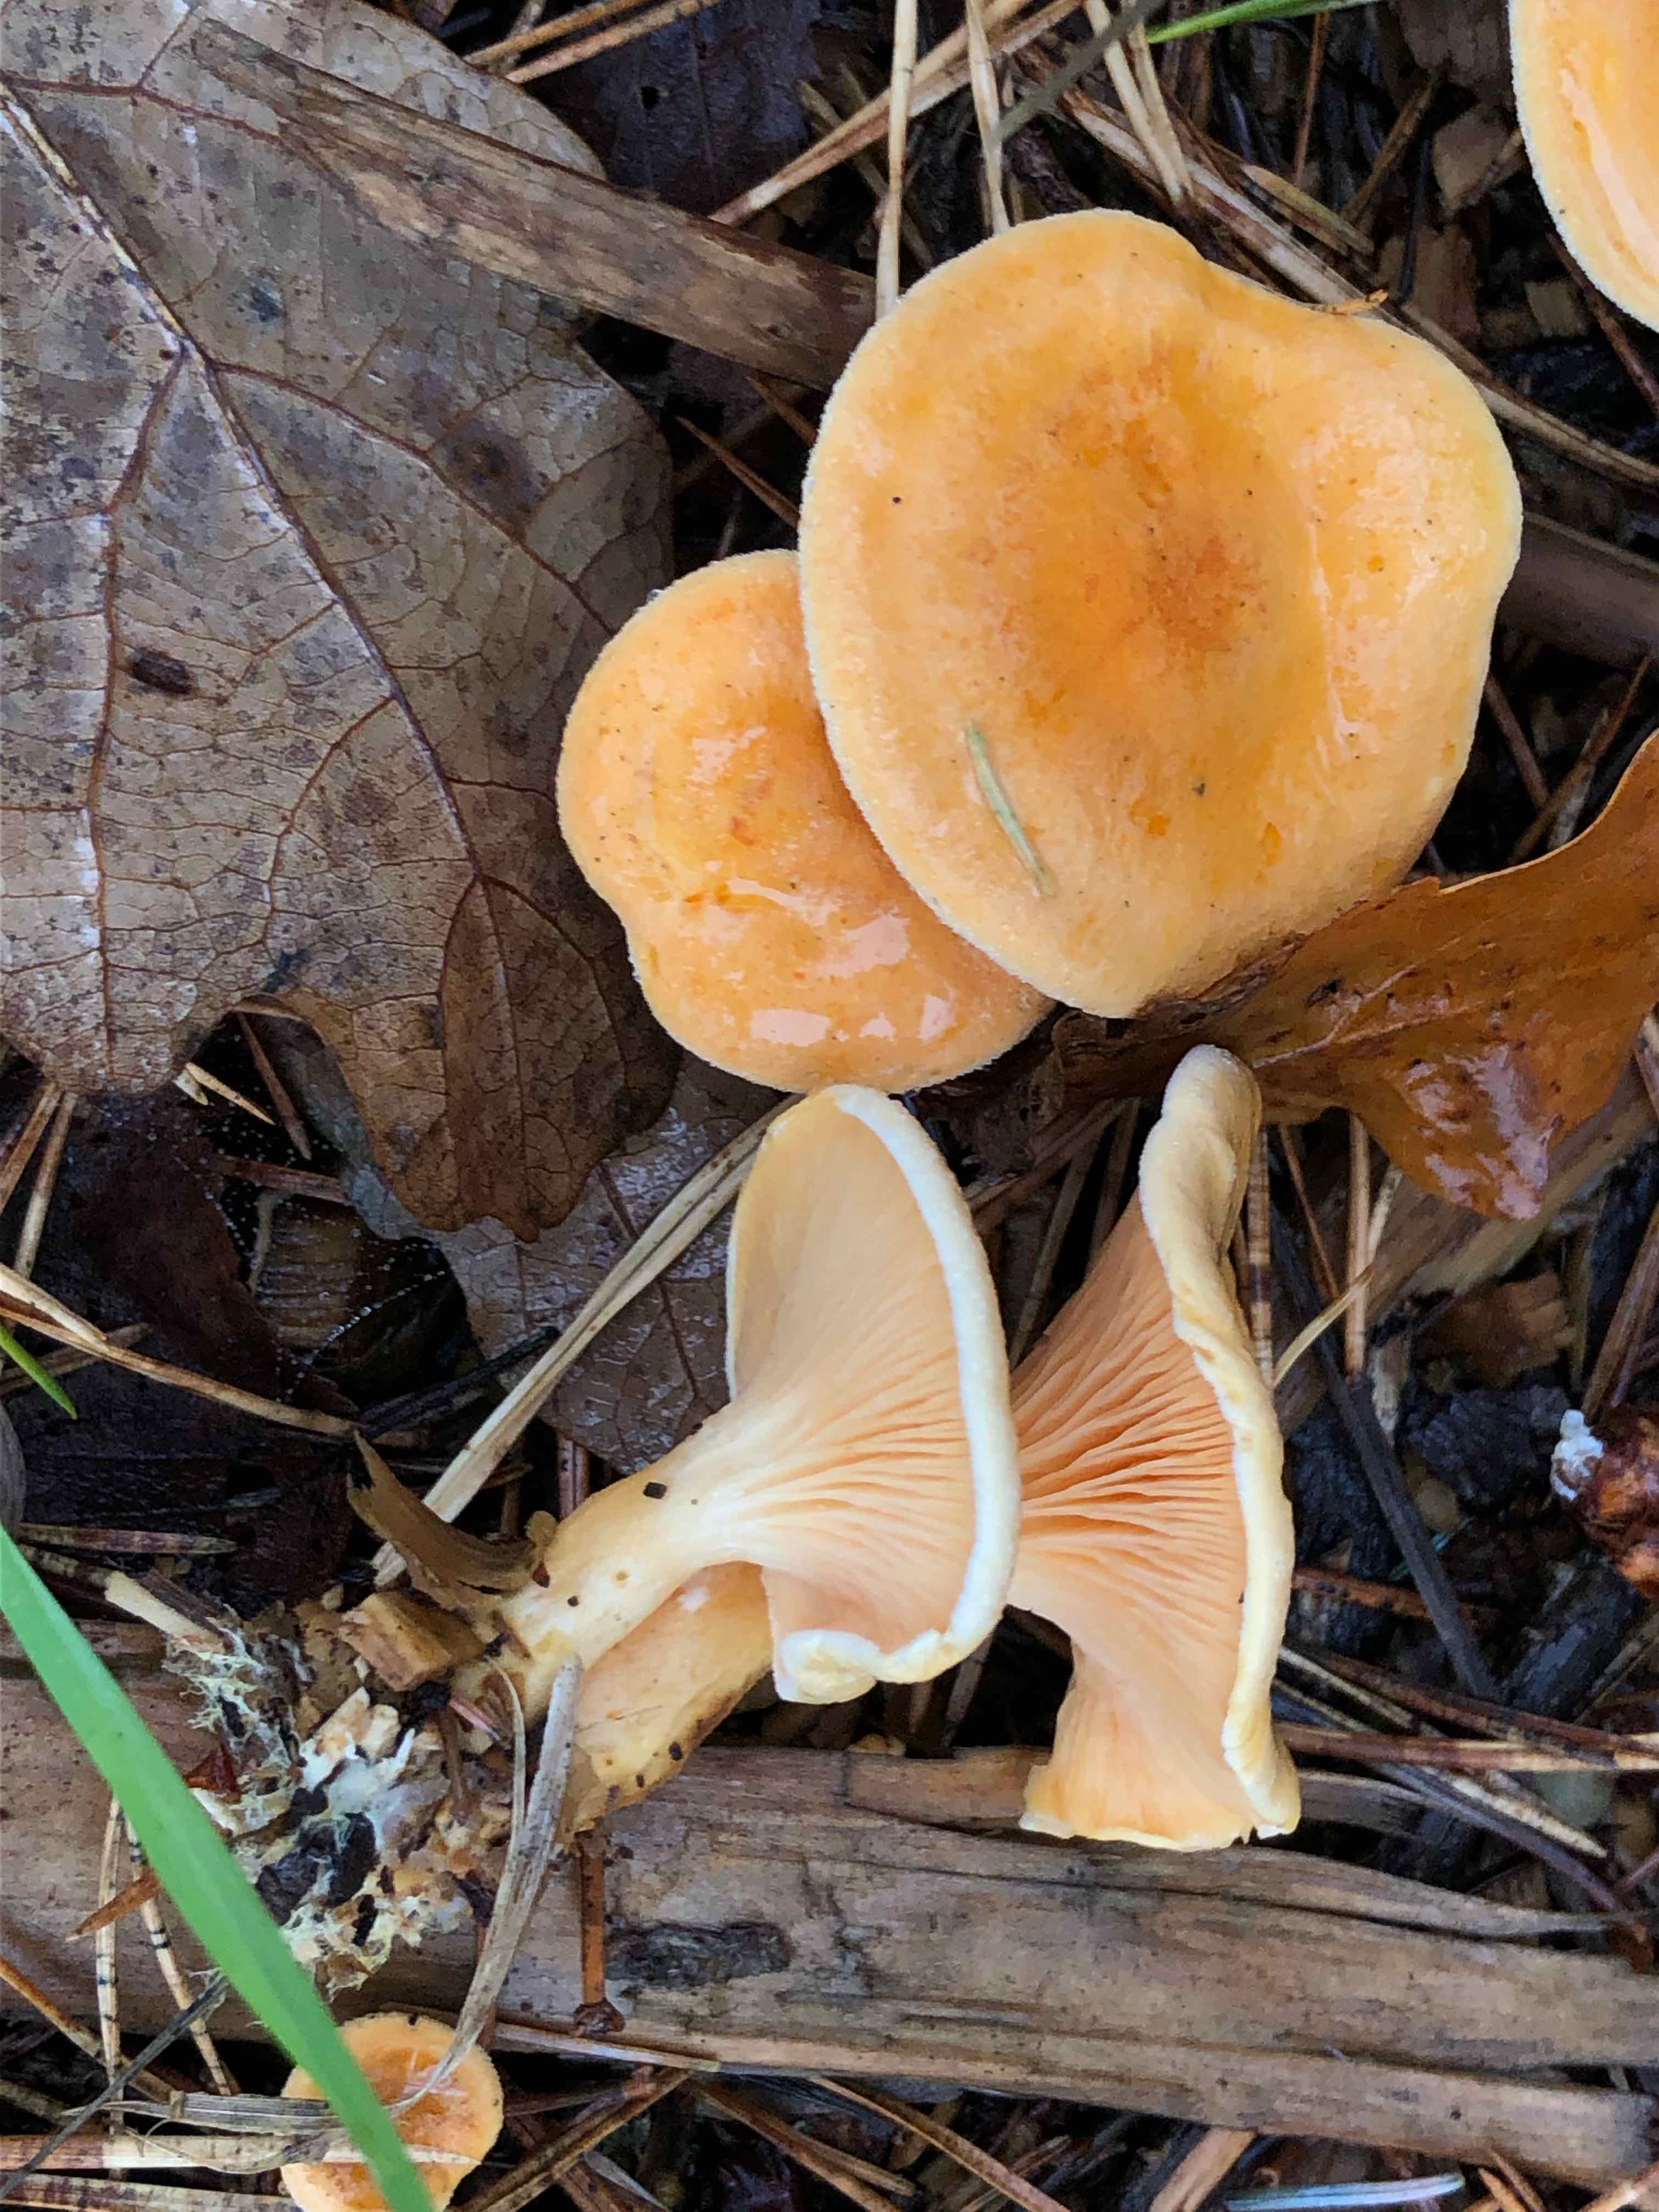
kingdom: Fungi
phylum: Basidiomycota
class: Agaricomycetes
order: Boletales
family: Hygrophoropsidaceae
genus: Hygrophoropsis
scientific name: Hygrophoropsis aurantiaca
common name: almindelig orangekantarel
